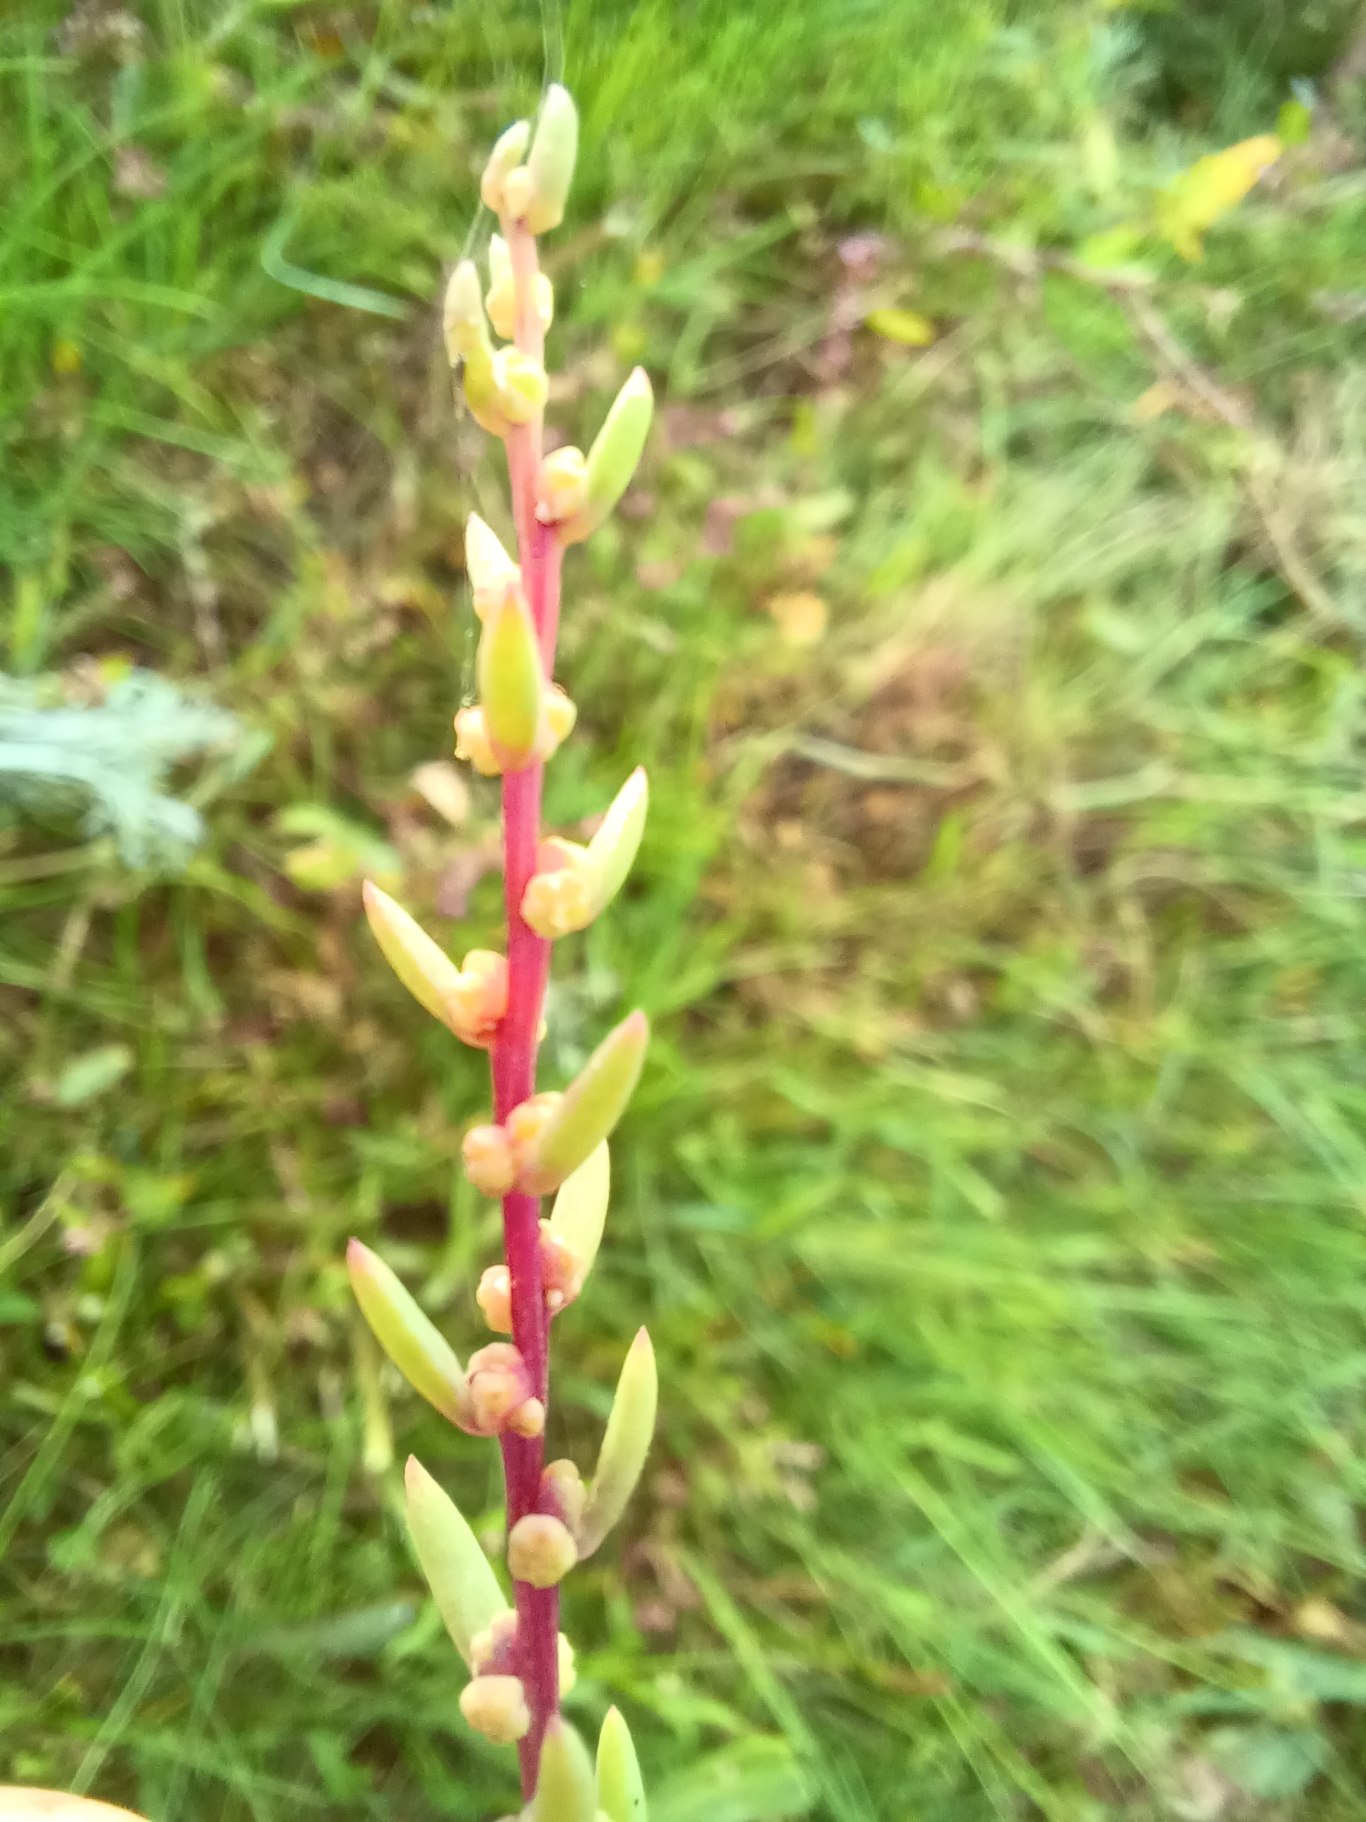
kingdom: Plantae
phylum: Tracheophyta
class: Magnoliopsida
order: Caryophyllales
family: Amaranthaceae
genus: Suaeda
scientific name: Suaeda maritima
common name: Strandgåsefod
